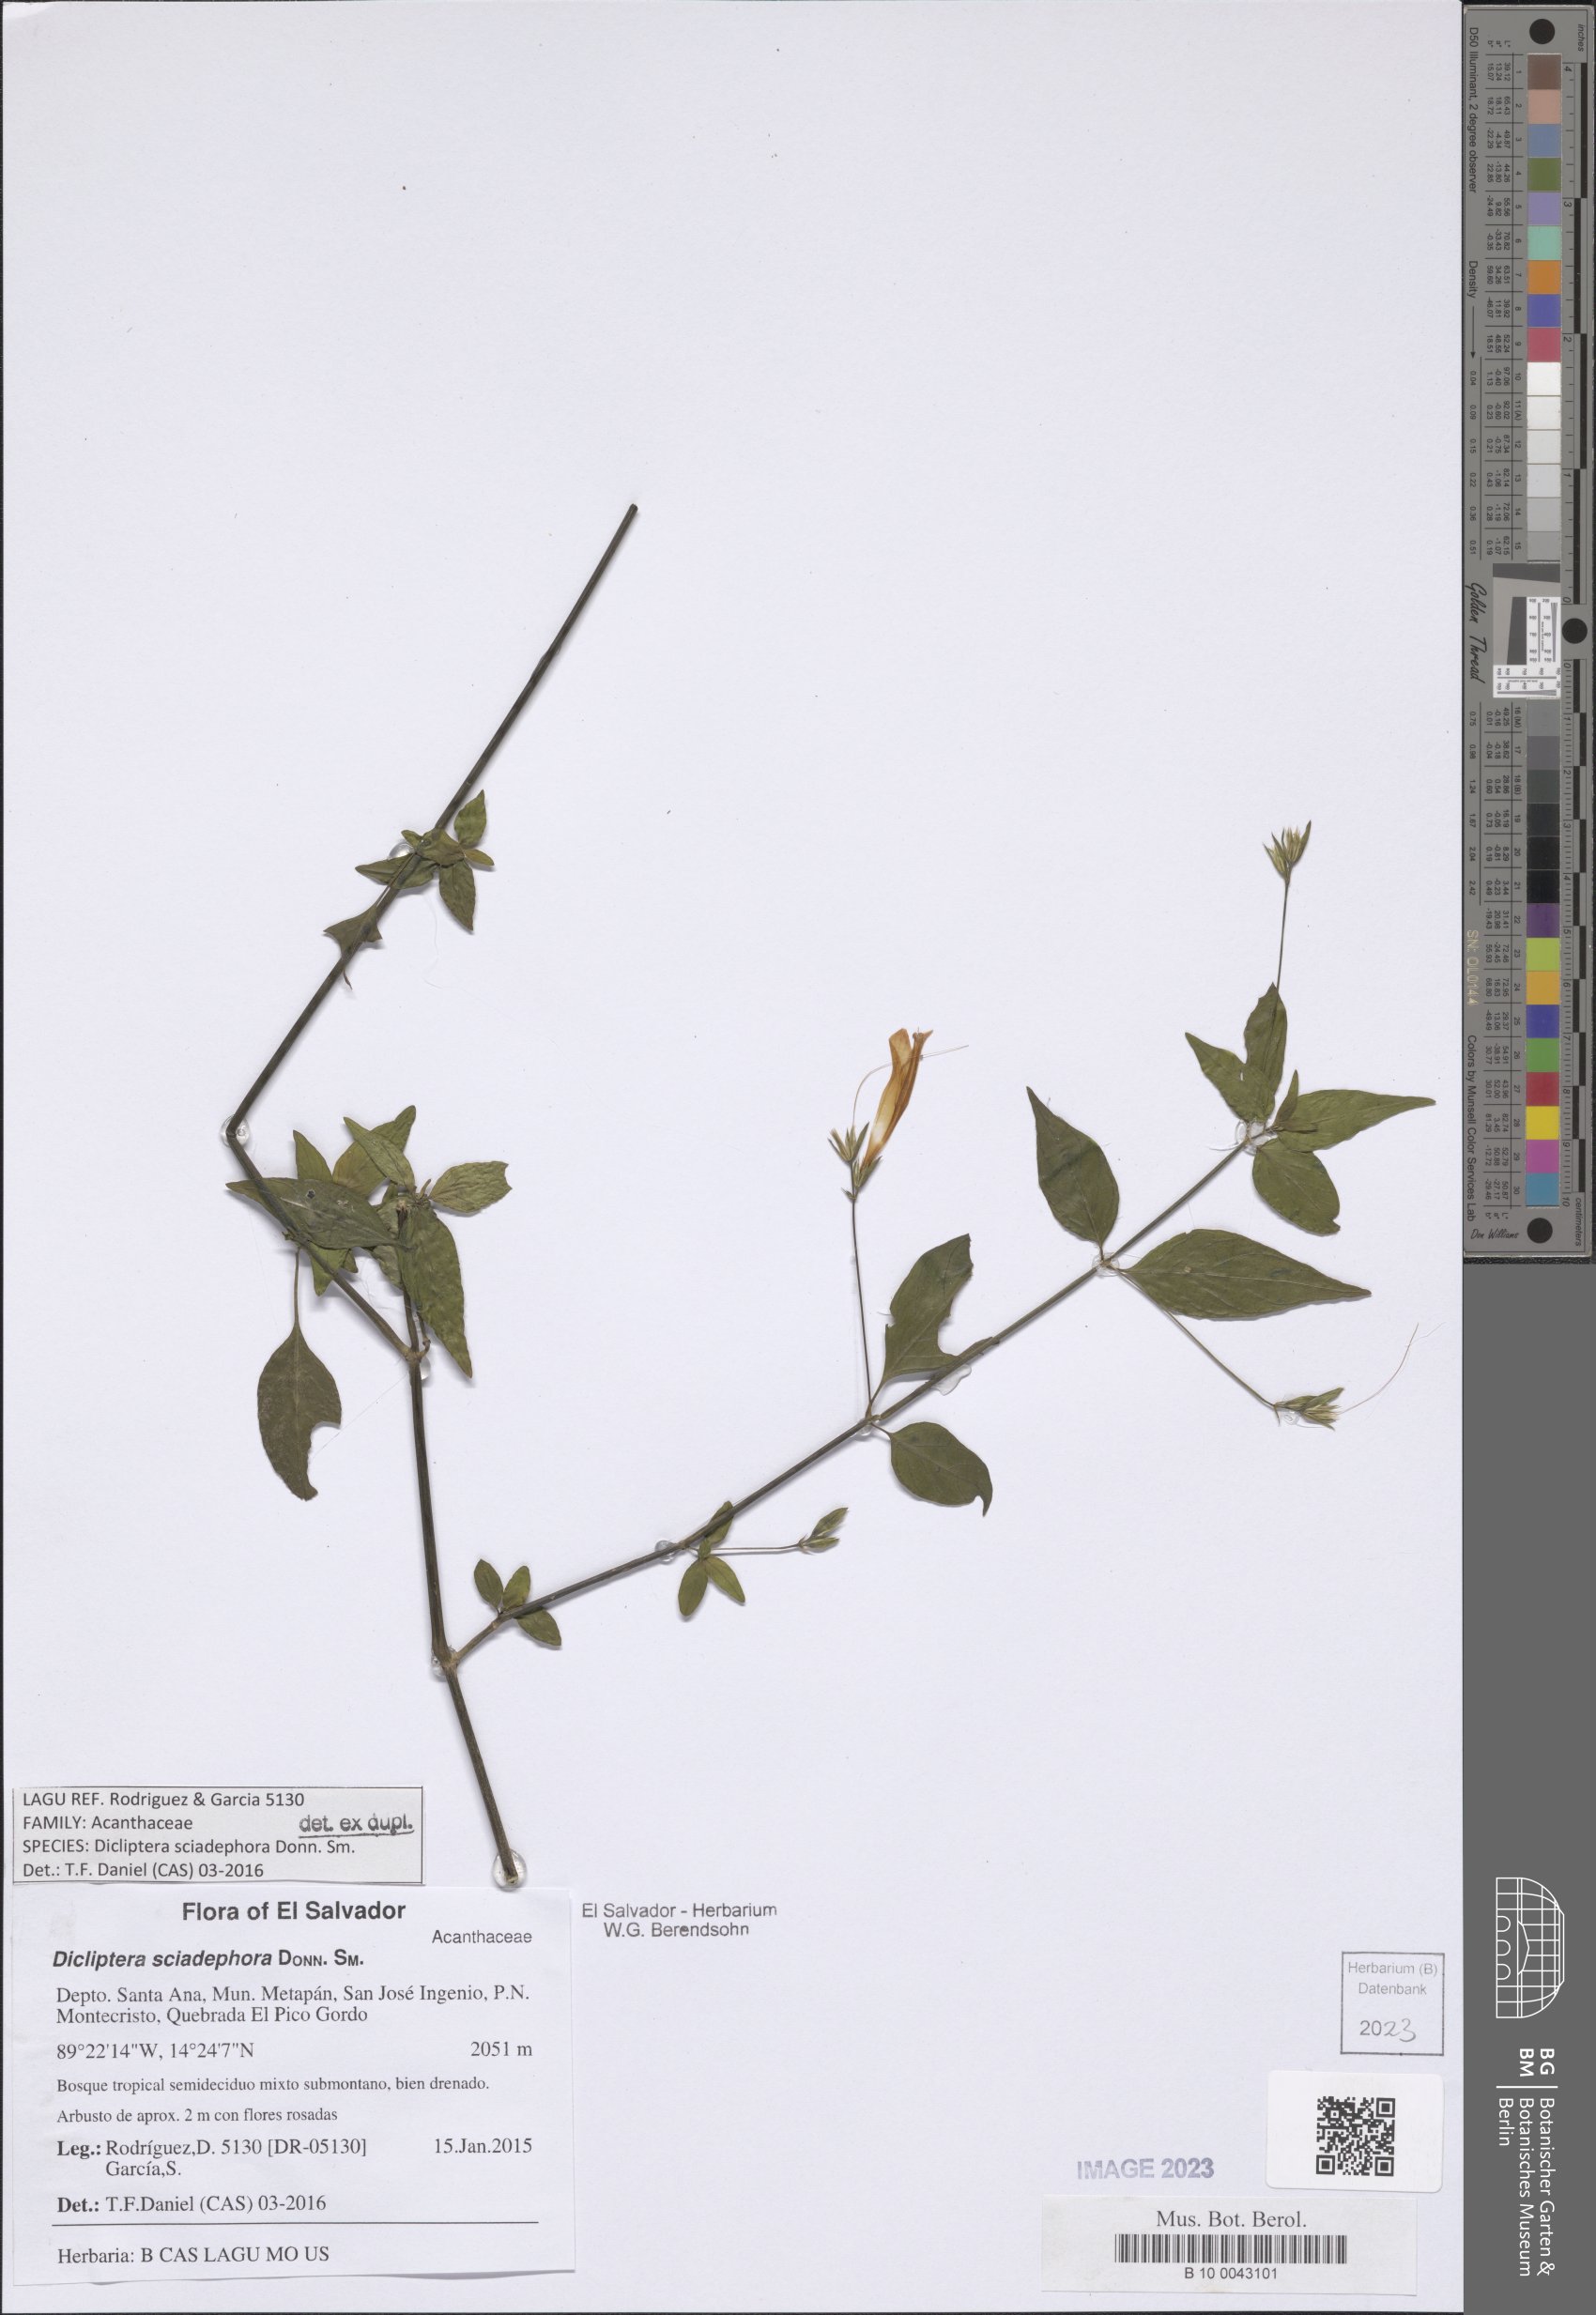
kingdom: Plantae
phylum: Tracheophyta
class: Magnoliopsida
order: Lamiales
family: Acanthaceae
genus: Dicliptera
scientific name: Dicliptera sciadephora
